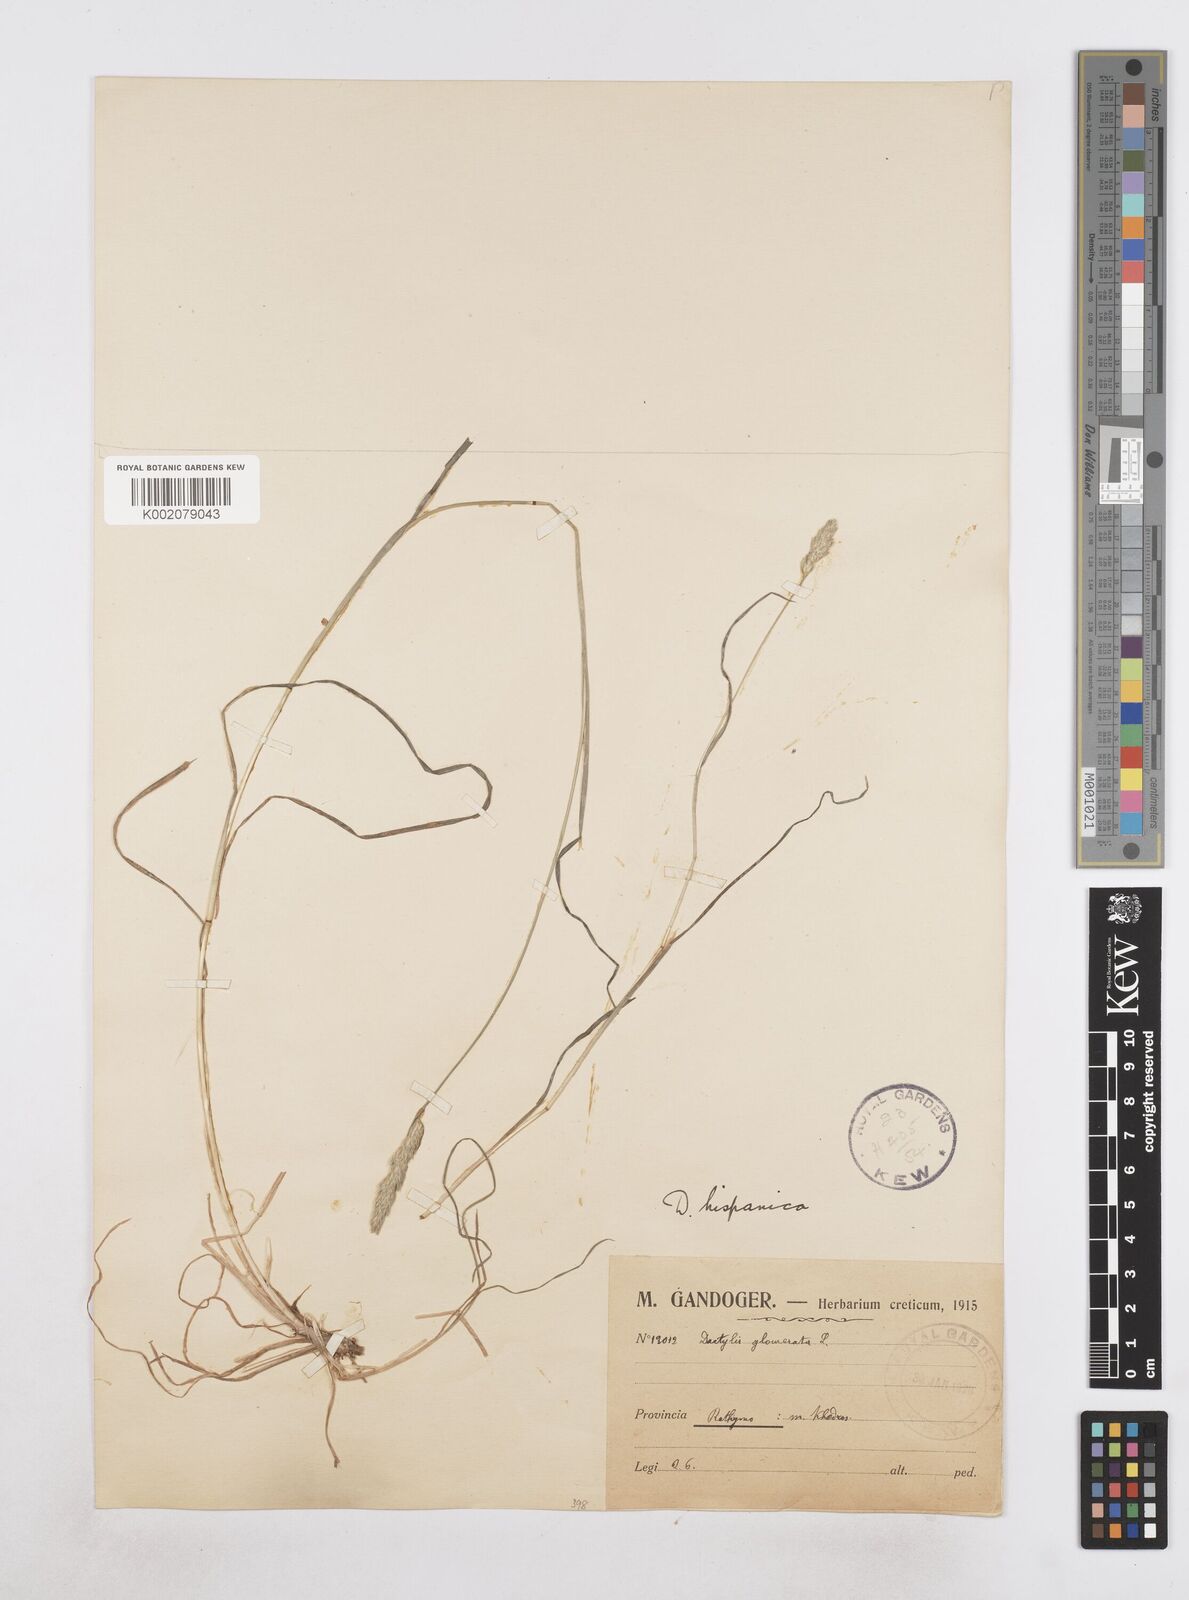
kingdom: Plantae
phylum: Tracheophyta
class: Liliopsida
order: Poales
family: Poaceae
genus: Dactylis
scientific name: Dactylis glomerata
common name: Orchardgrass
